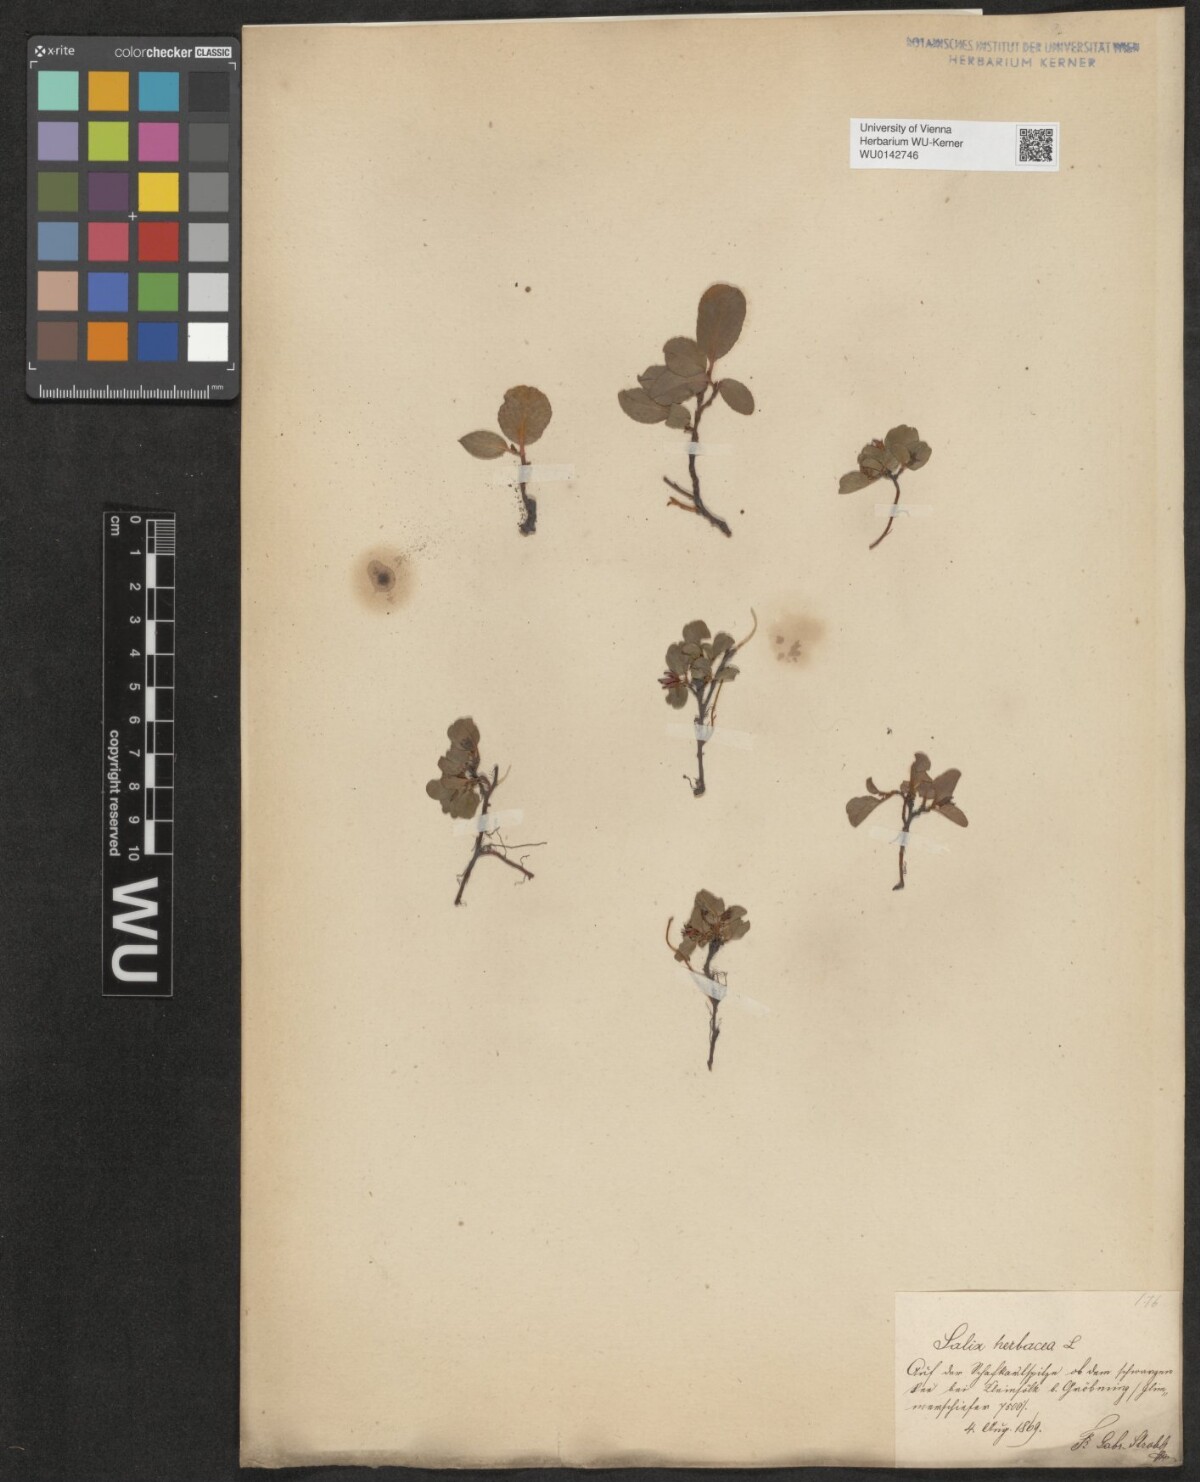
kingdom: Plantae
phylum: Tracheophyta
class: Magnoliopsida
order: Malpighiales
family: Salicaceae
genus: Salix
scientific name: Salix herbacea
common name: Dwarf willow
